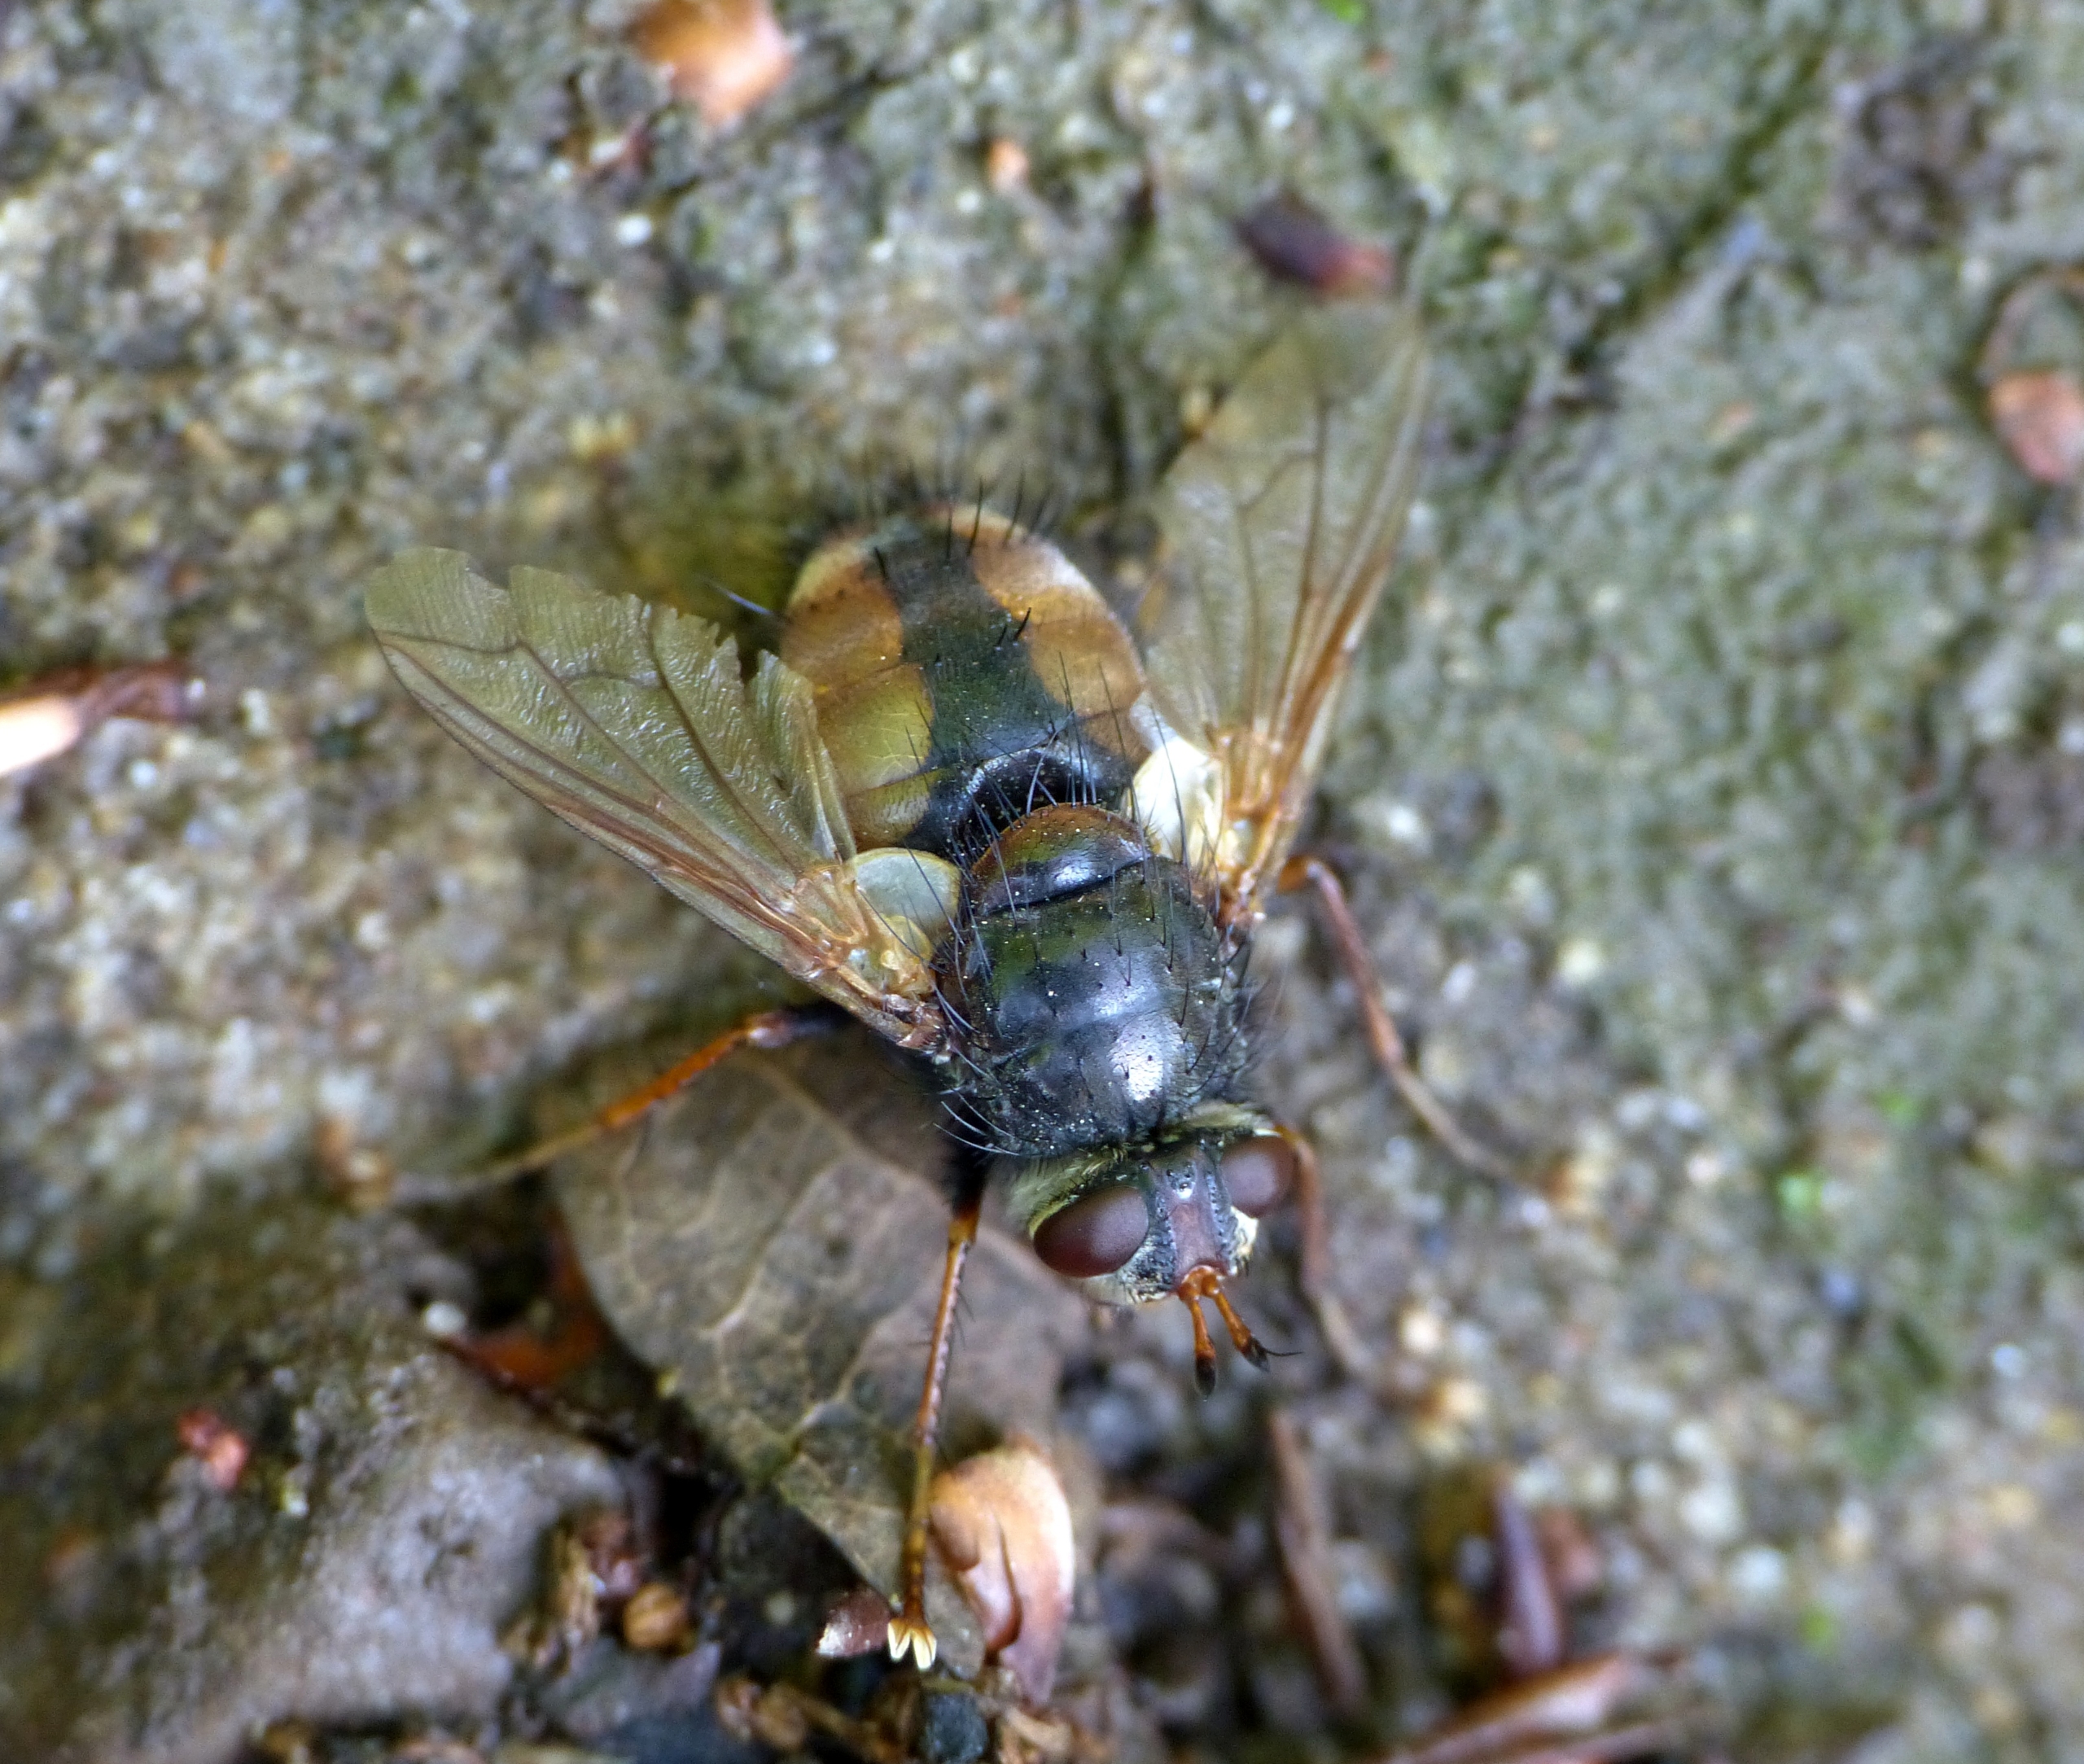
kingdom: Animalia
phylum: Arthropoda
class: Insecta
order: Diptera
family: Tachinidae
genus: Tachina
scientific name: Tachina fera
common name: Mellemfluen oskar
